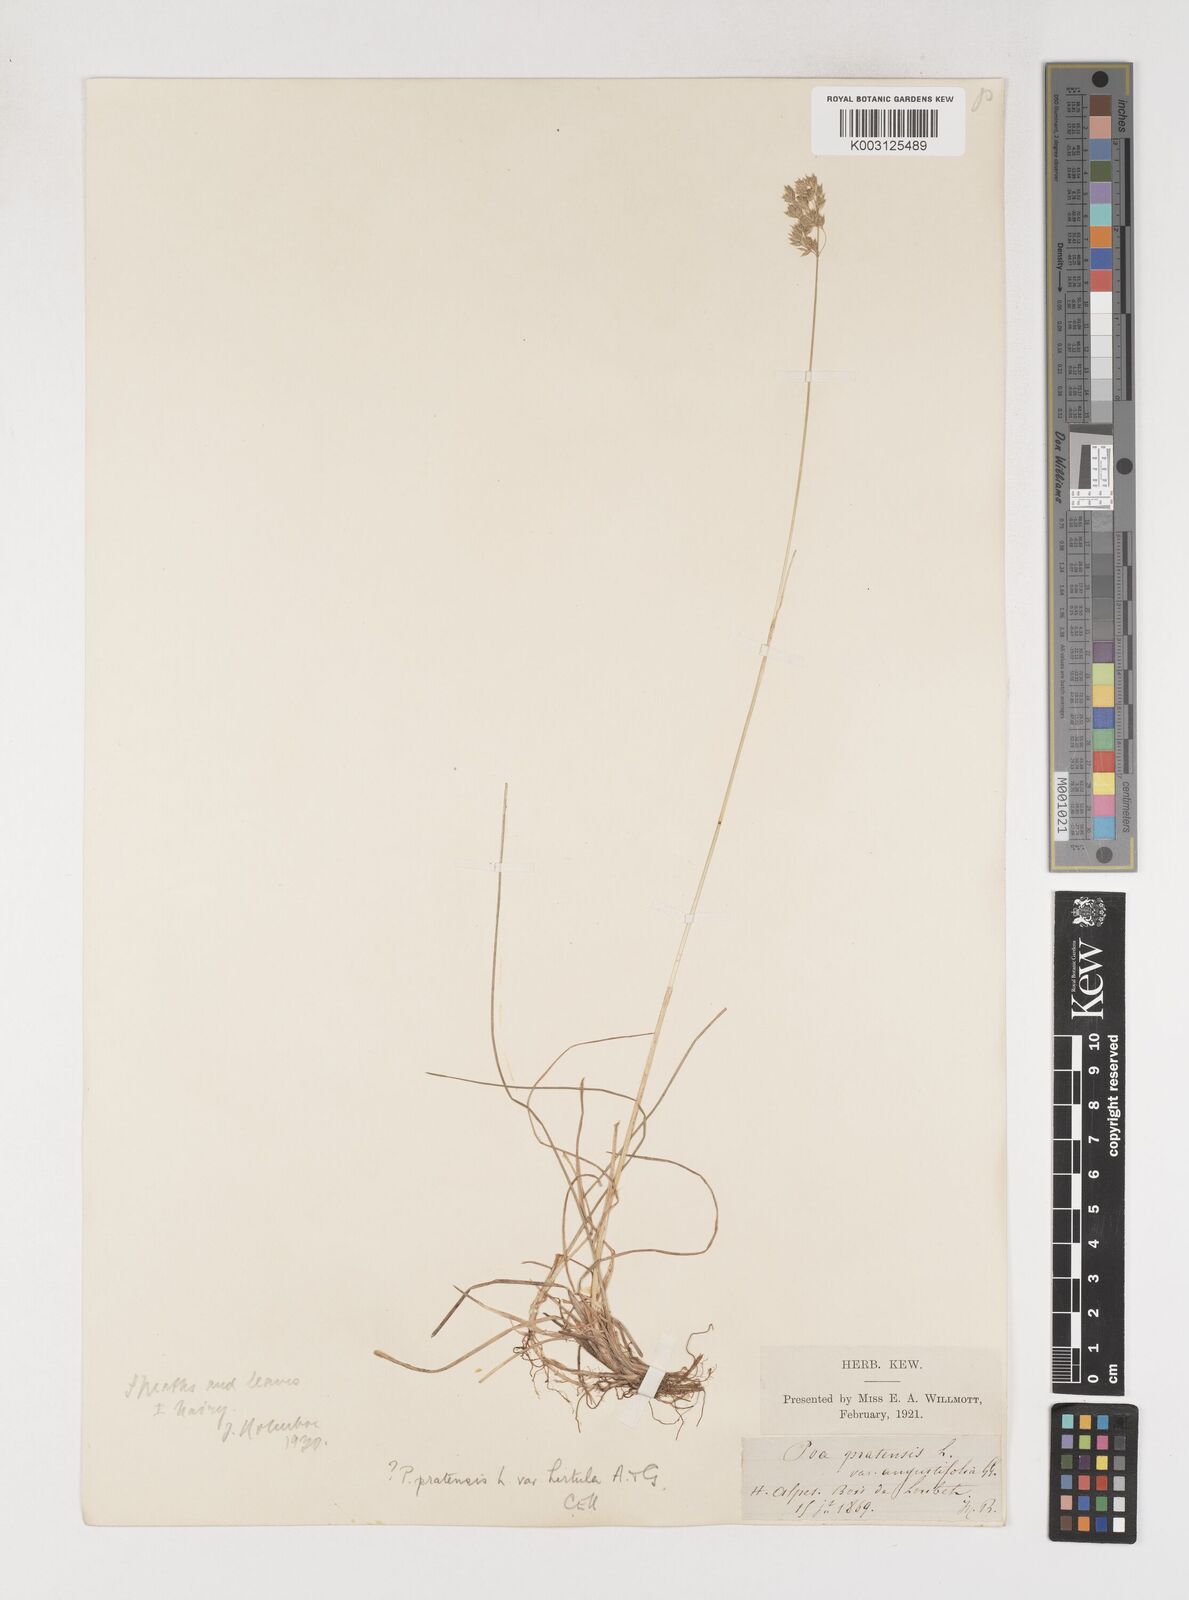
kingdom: Plantae
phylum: Tracheophyta
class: Liliopsida
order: Poales
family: Poaceae
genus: Poa
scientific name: Poa angustifolia
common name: Narrow-leaved meadow-grass
